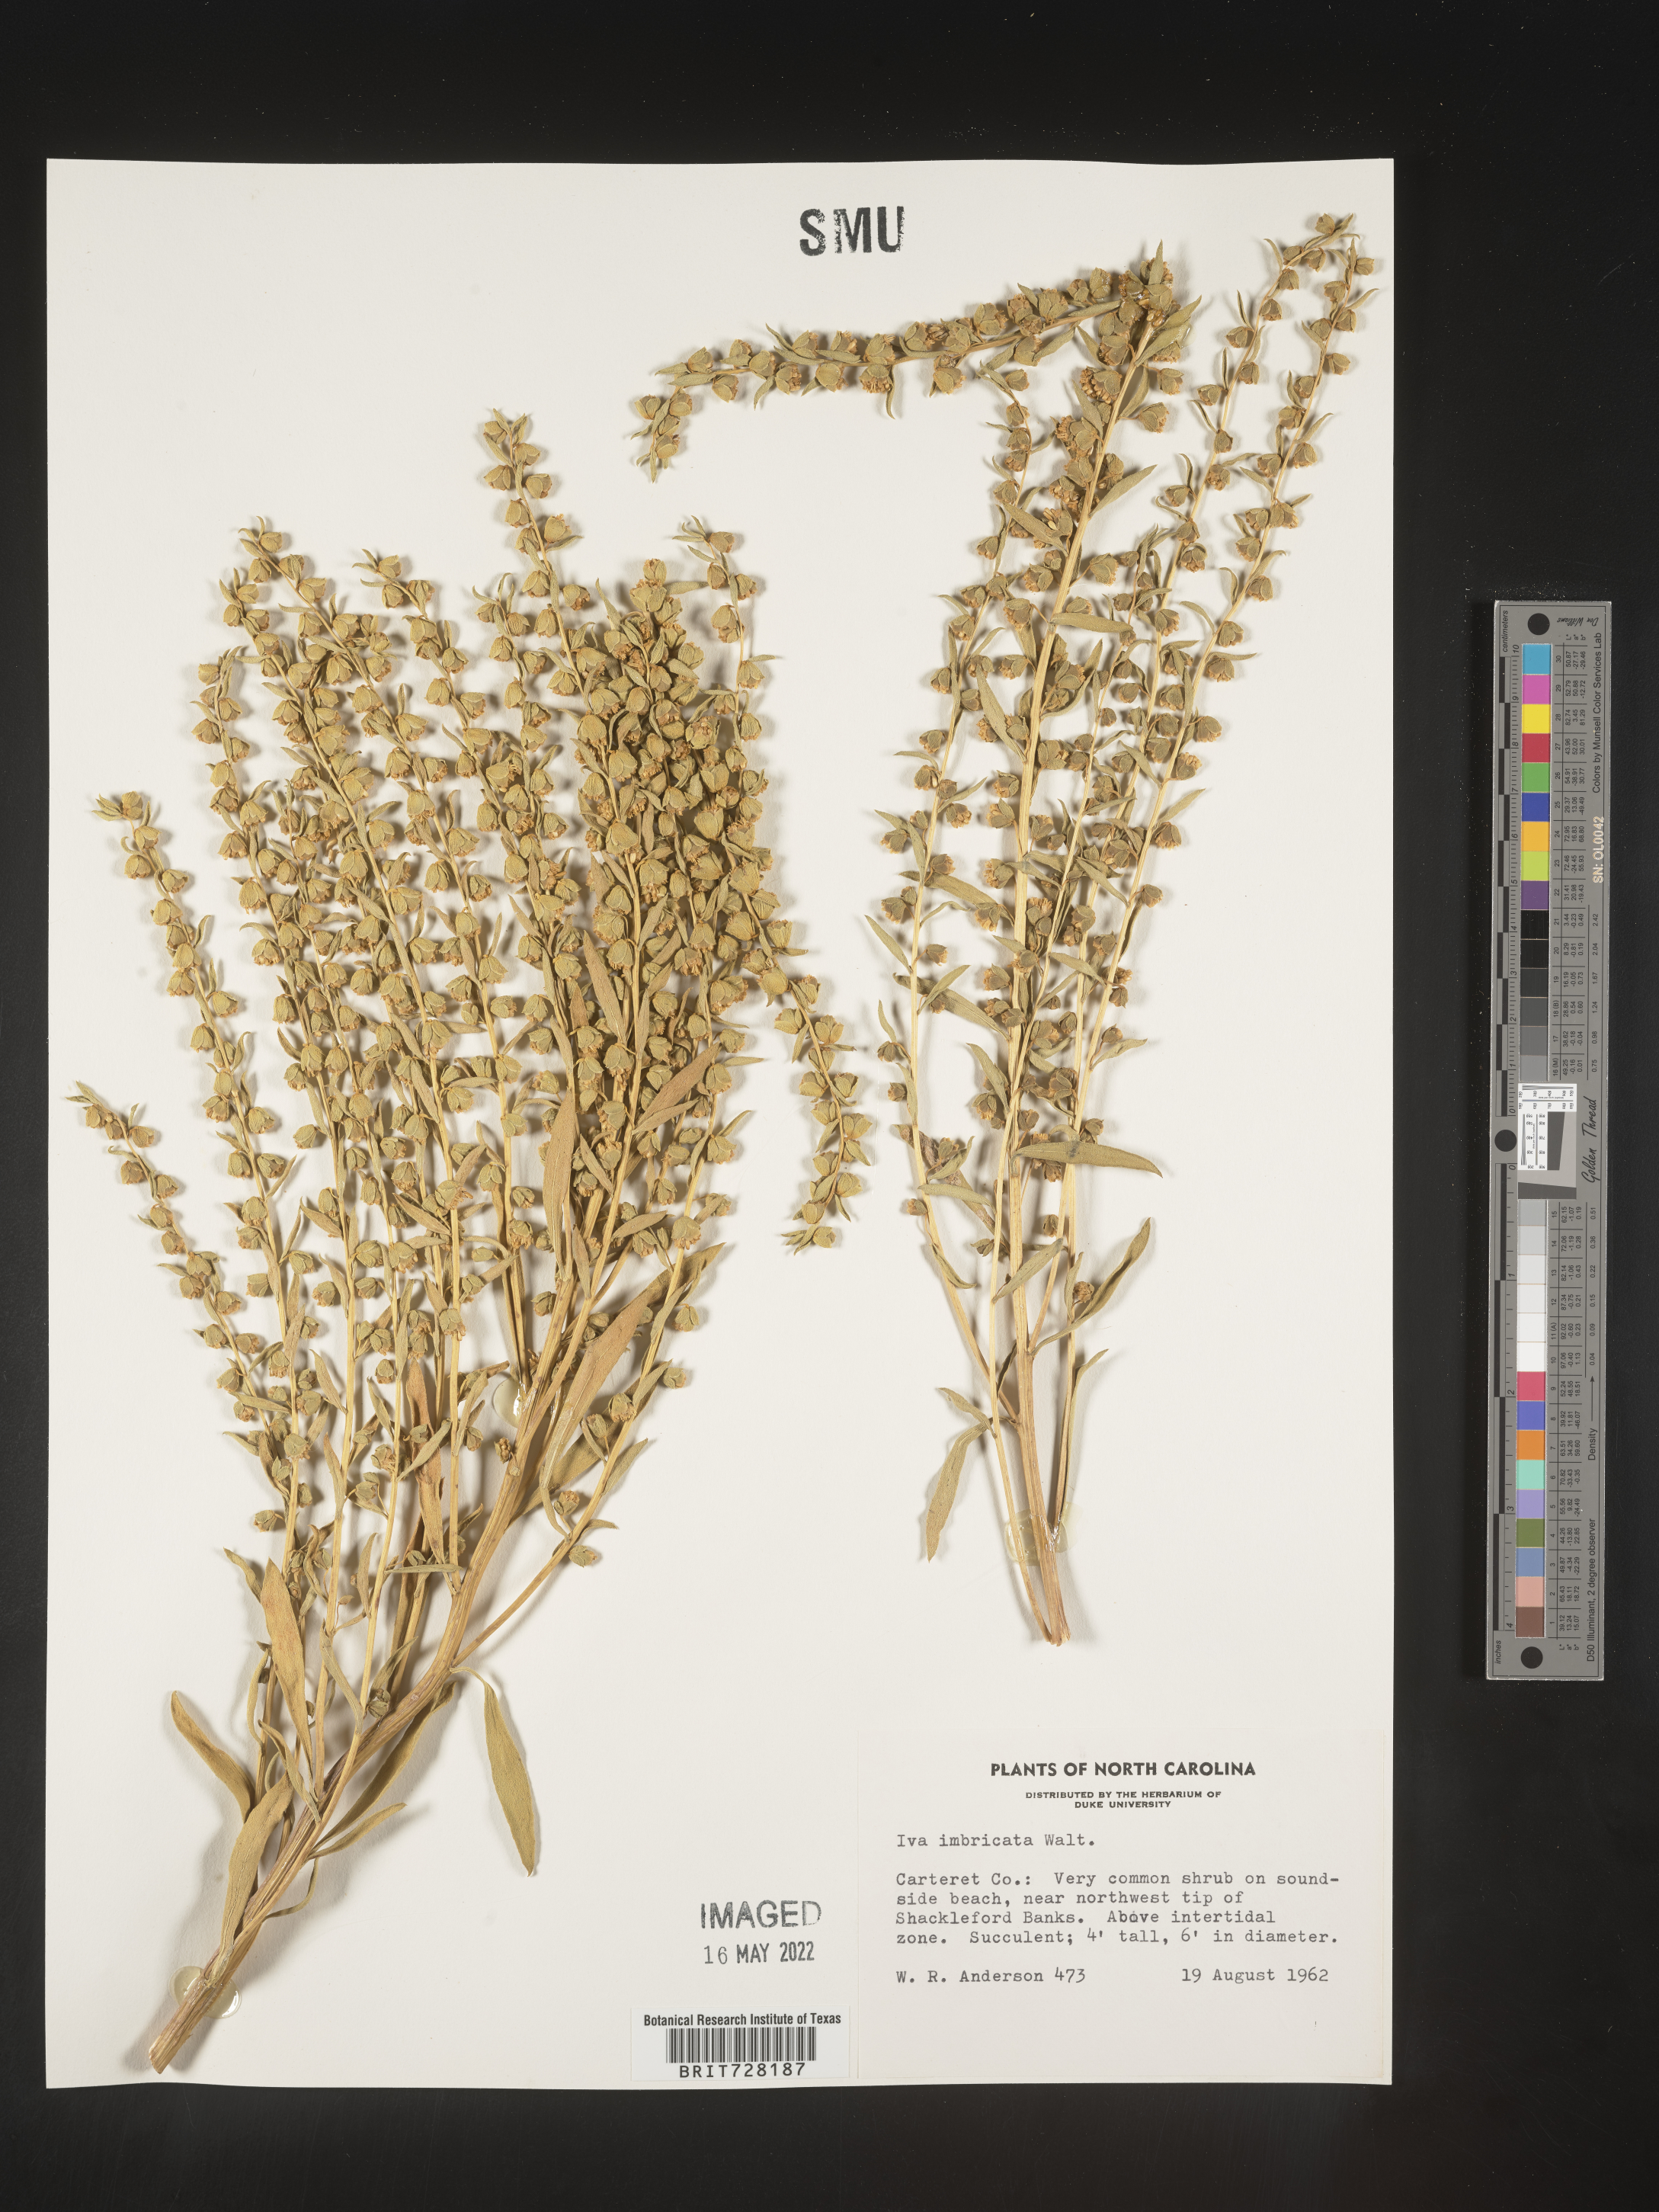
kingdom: Plantae
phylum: Tracheophyta
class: Magnoliopsida
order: Asterales
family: Asteraceae
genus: Iva
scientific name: Iva imbricata
